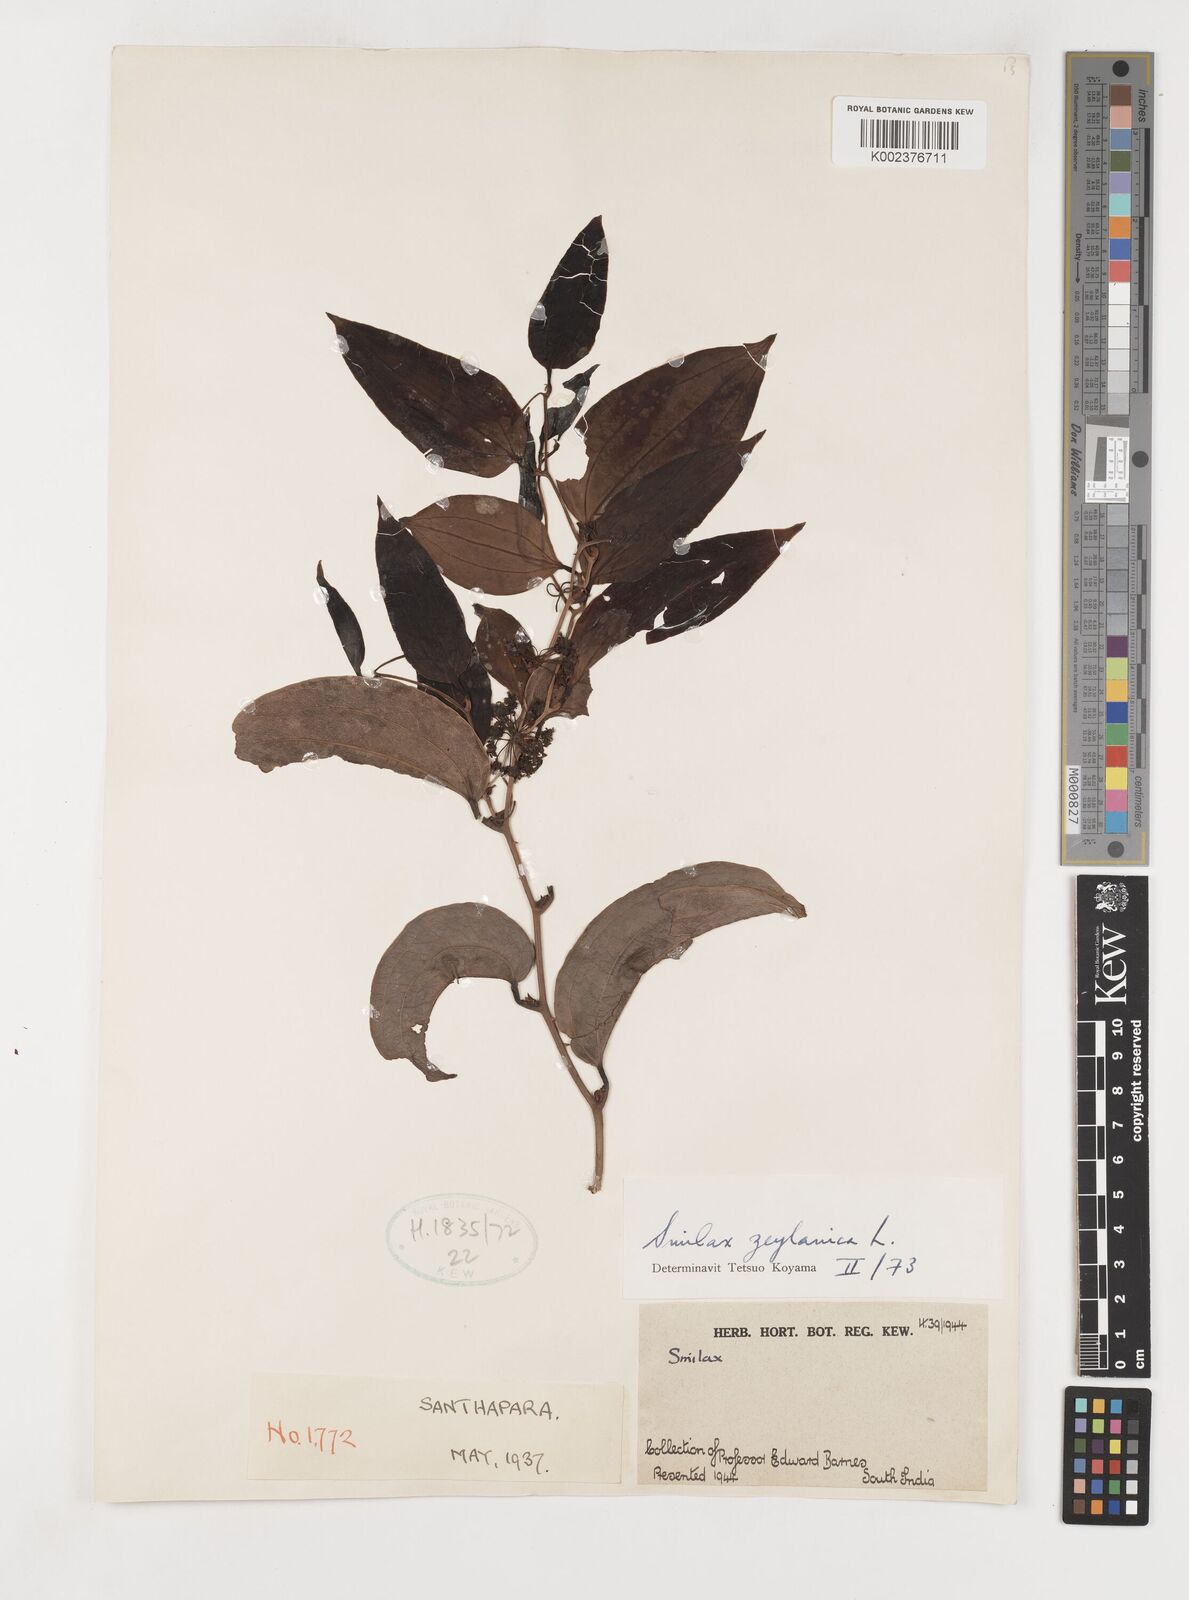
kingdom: Plantae
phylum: Tracheophyta
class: Liliopsida
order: Liliales
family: Smilacaceae
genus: Smilax
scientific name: Smilax zeylanica
